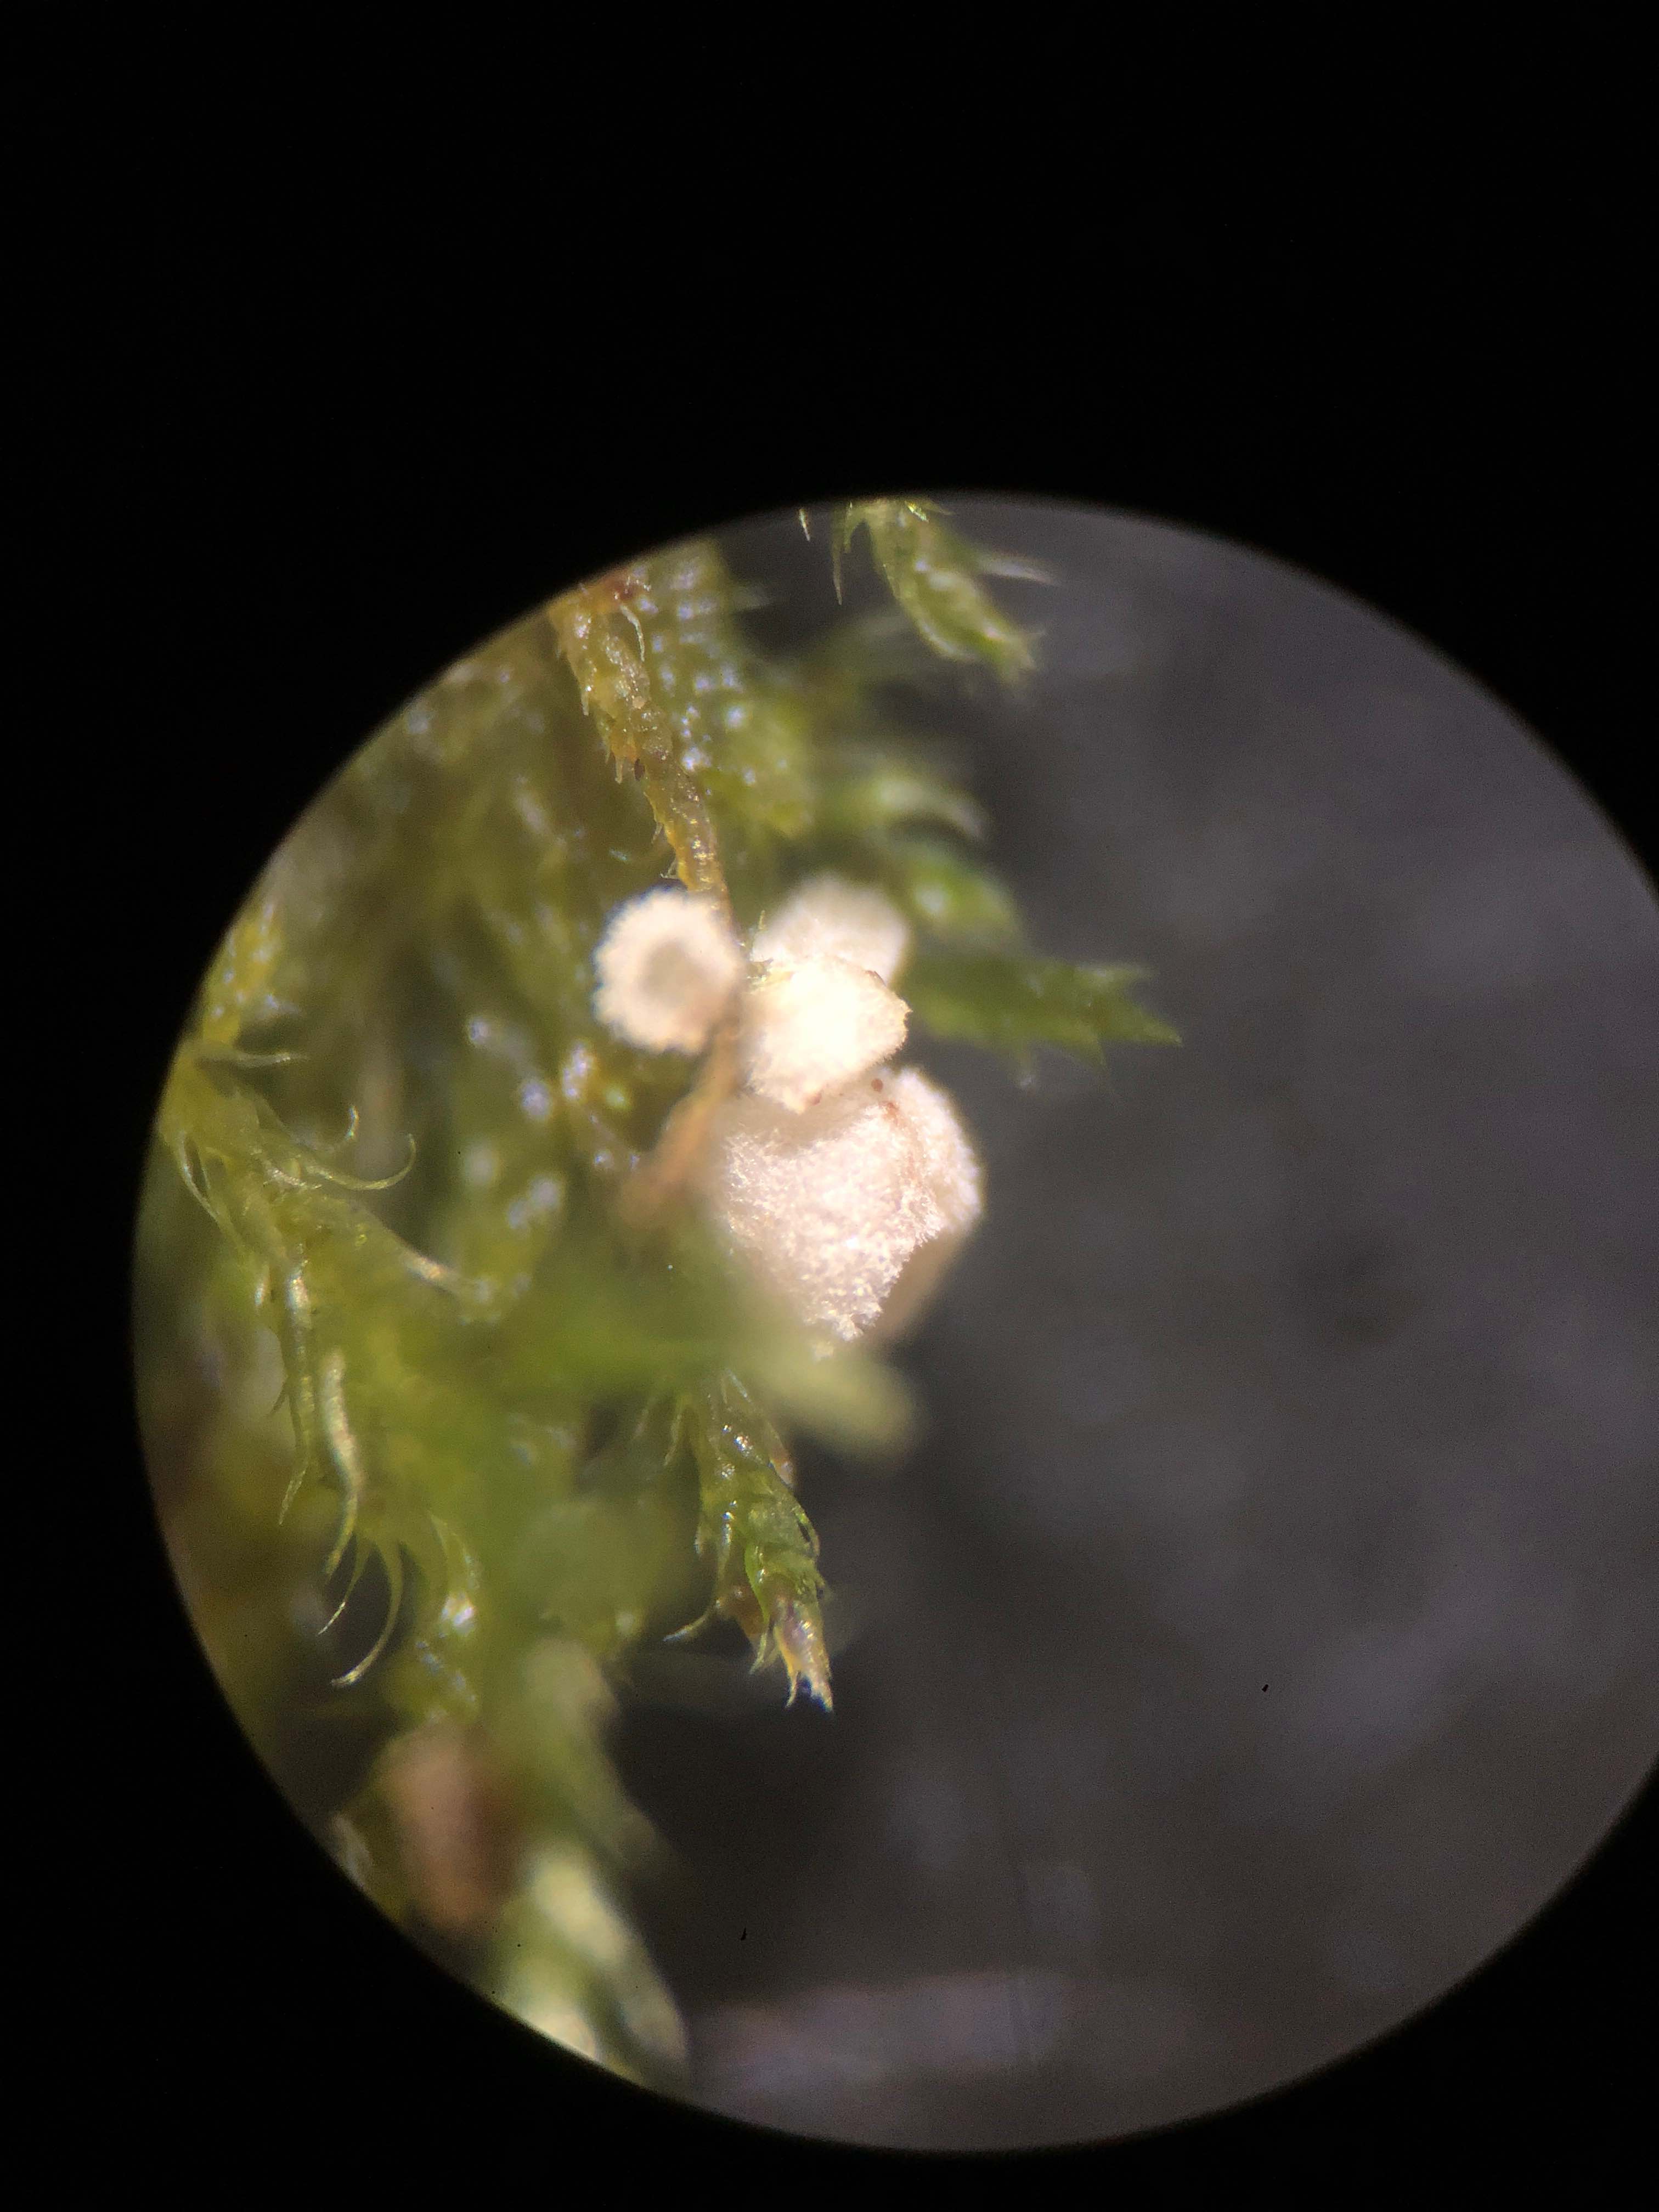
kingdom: Fungi
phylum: Basidiomycota
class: Agaricomycetes
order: Agaricales
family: Chromocyphellaceae
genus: Chromocyphella
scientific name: Chromocyphella muscicola
